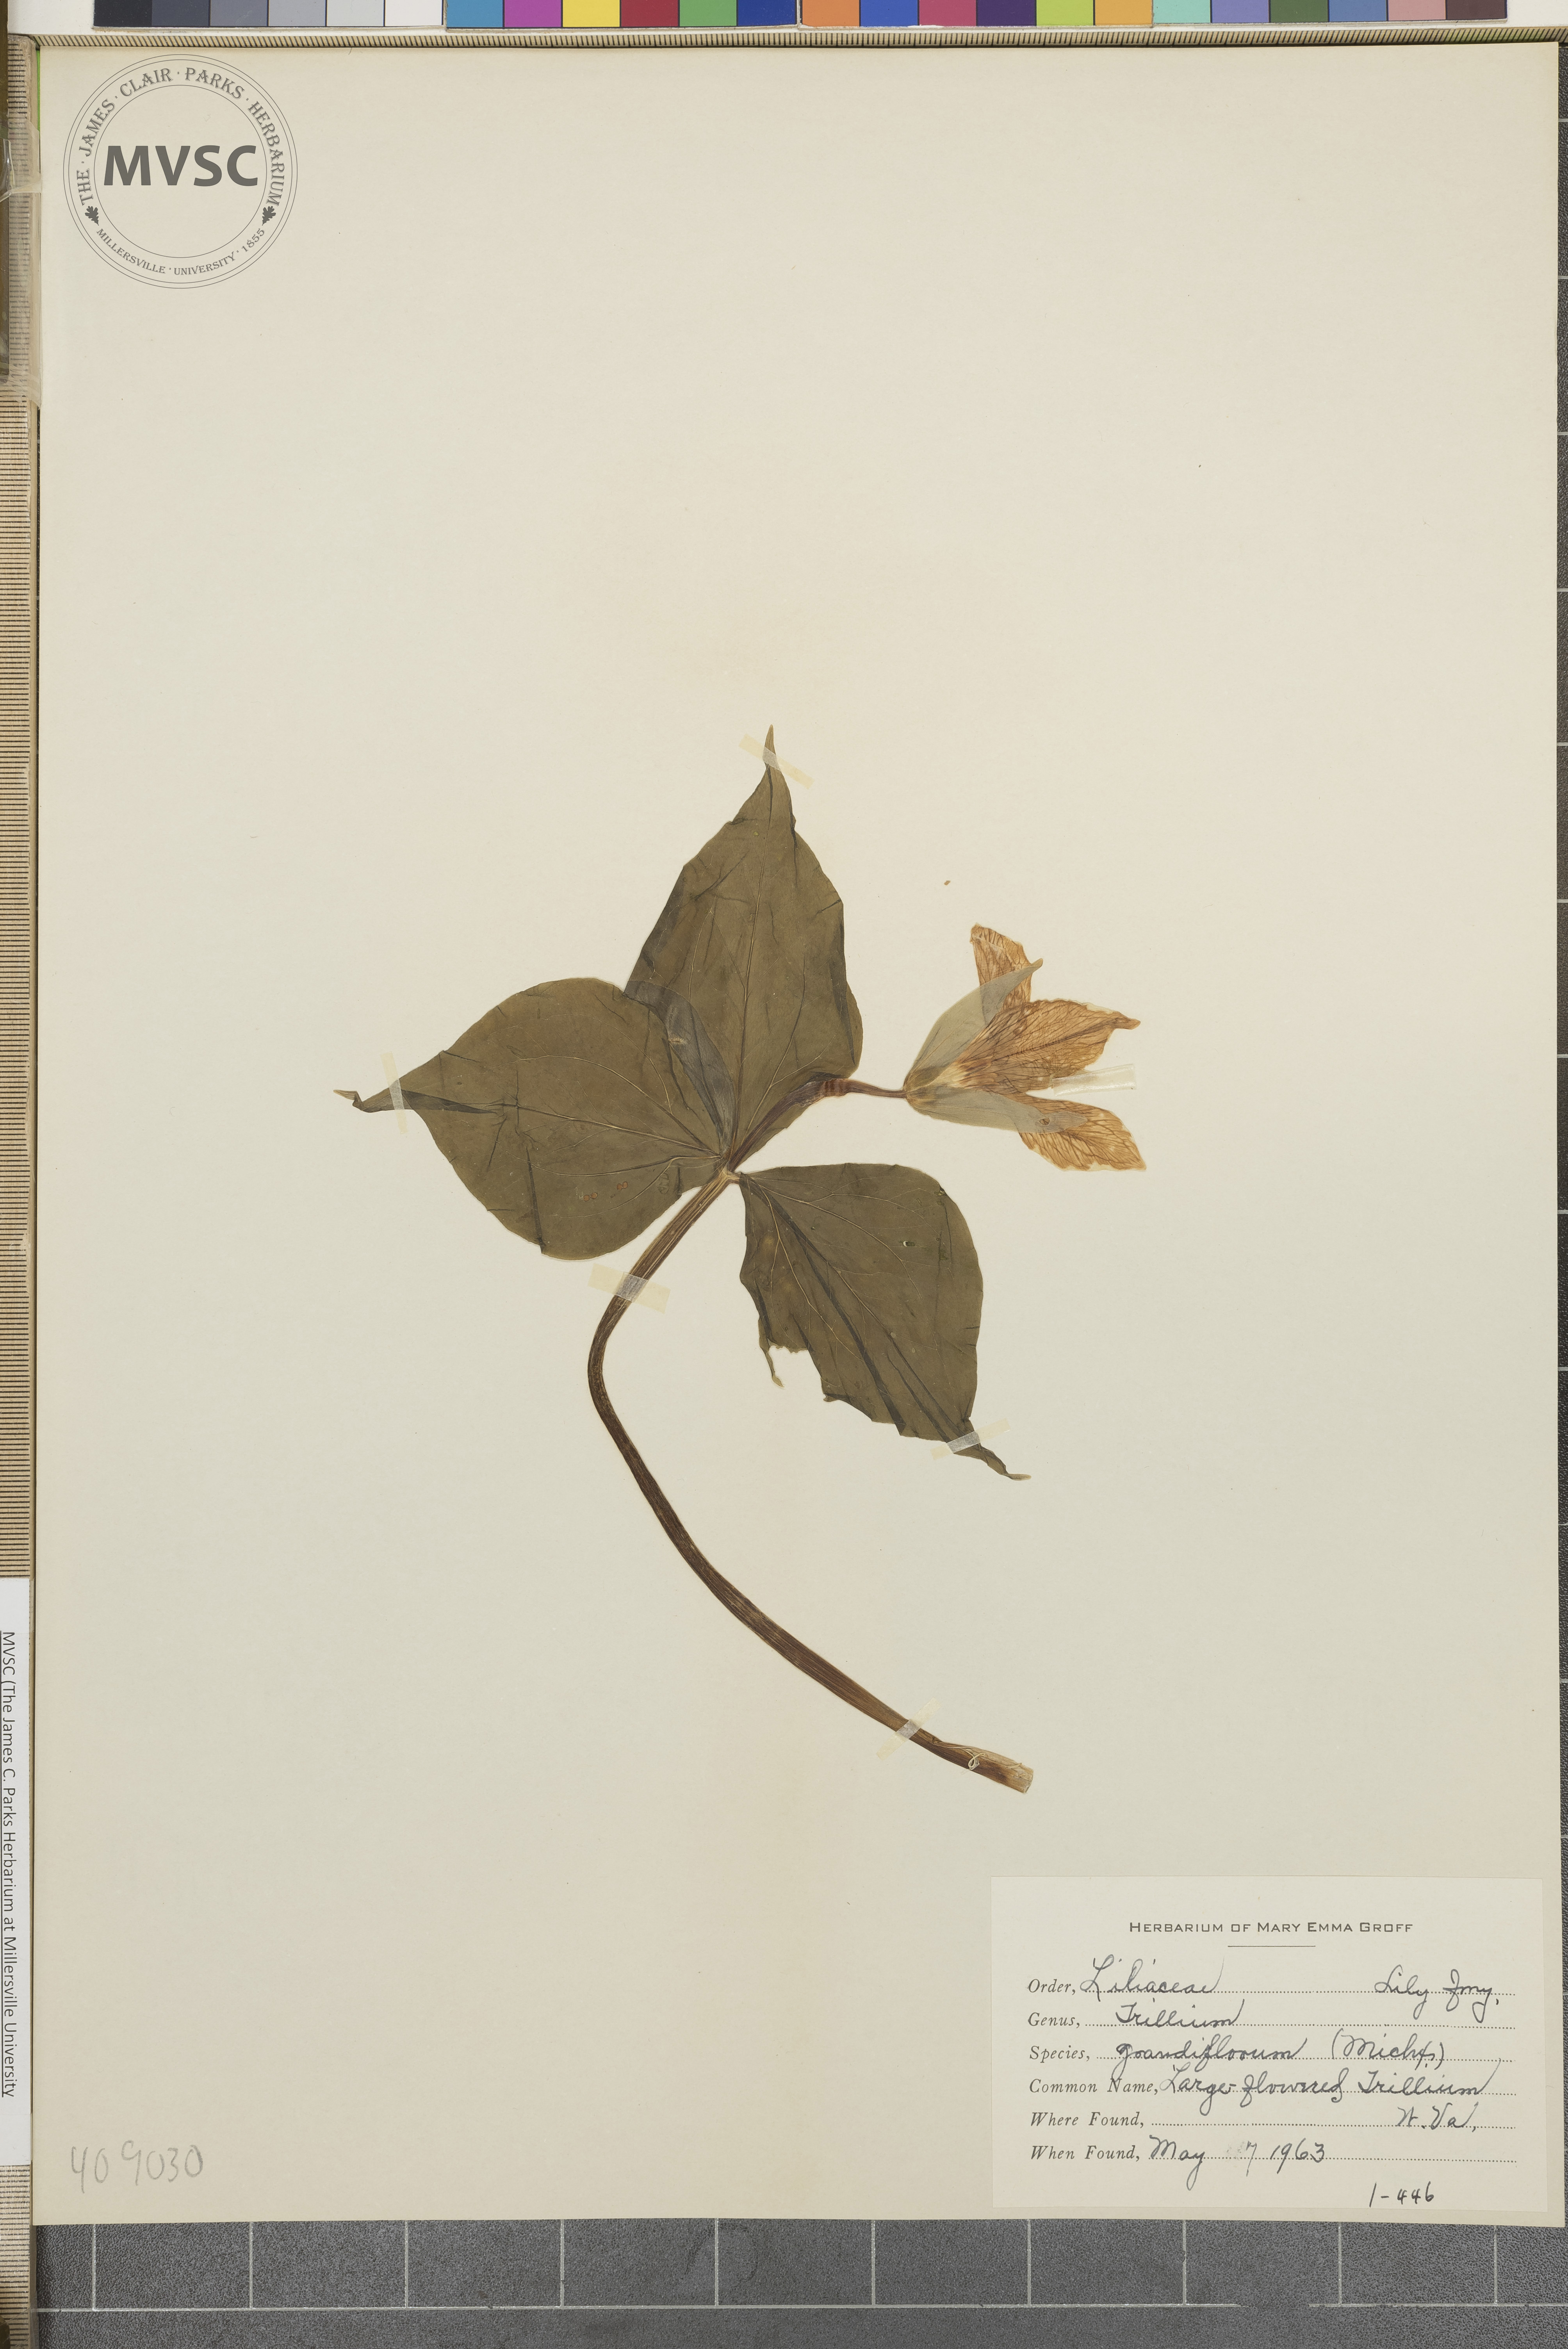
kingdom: Plantae
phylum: Tracheophyta
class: Liliopsida
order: Liliales
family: Melanthiaceae
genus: Trillium
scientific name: Trillium grandiflorum
